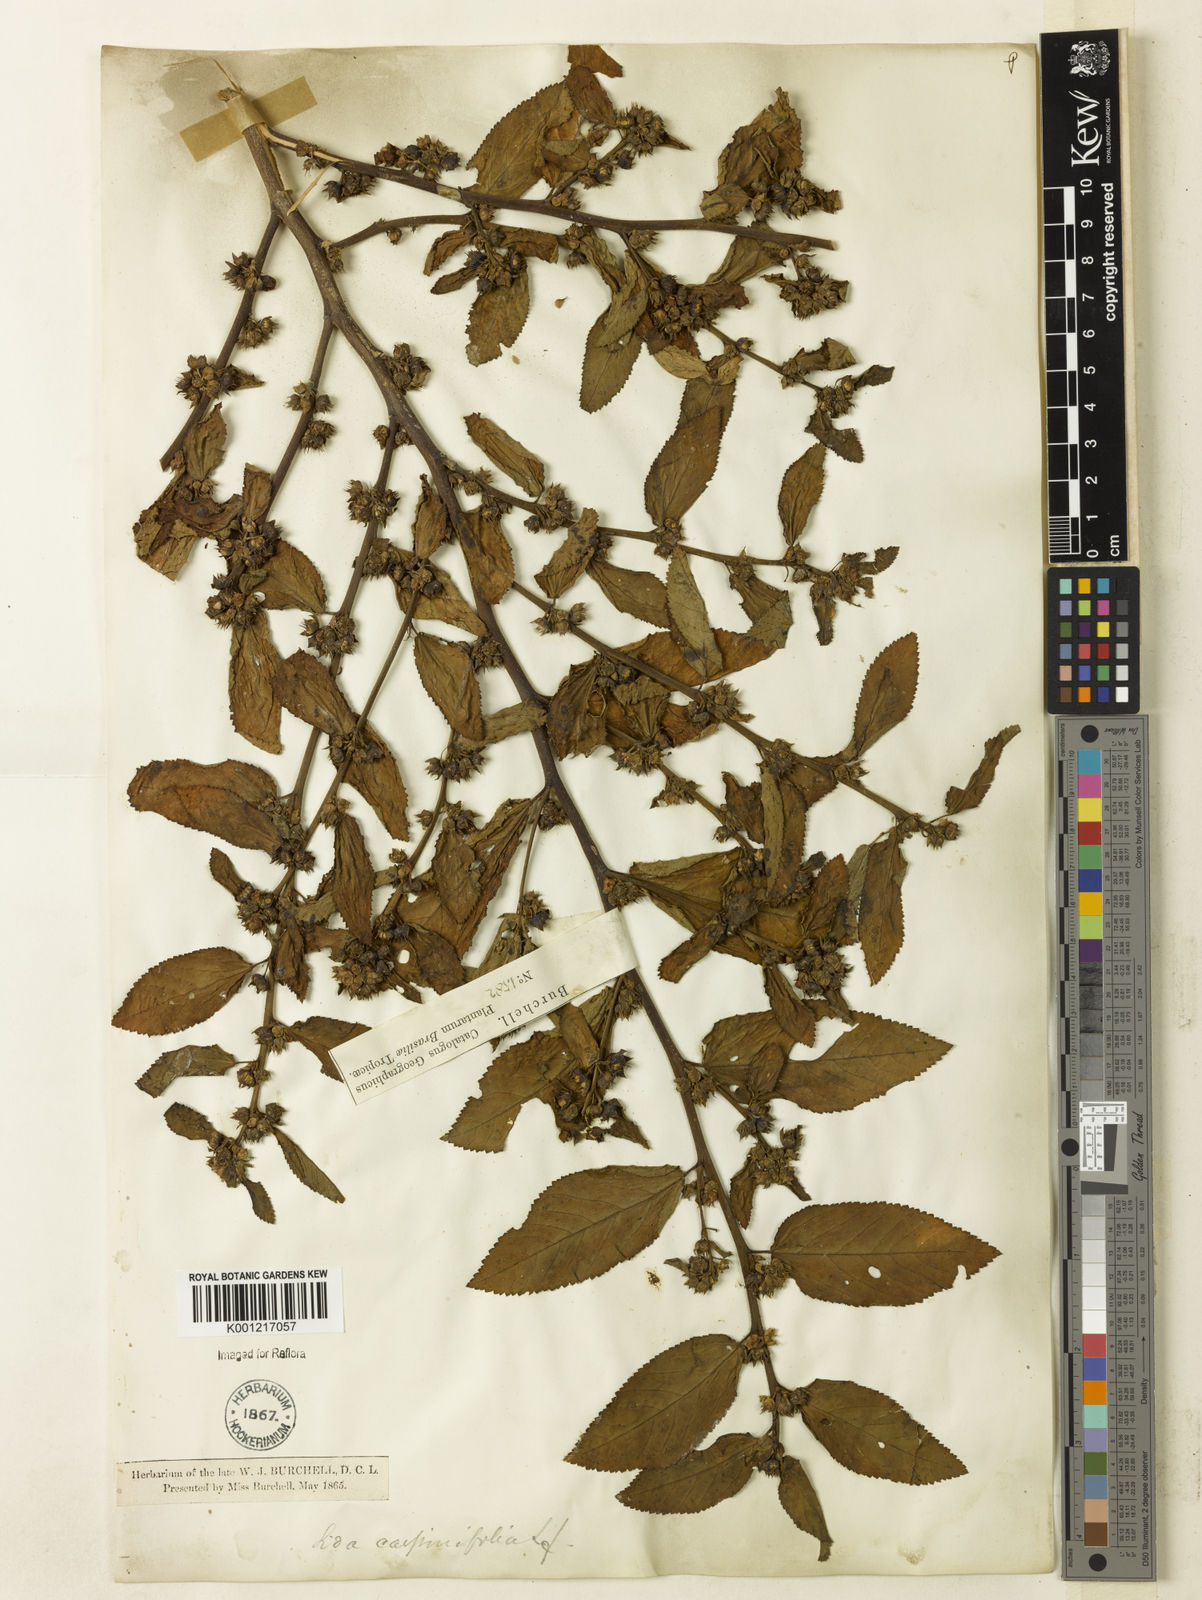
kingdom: Plantae
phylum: Tracheophyta
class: Magnoliopsida
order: Malvales
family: Malvaceae
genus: Sida
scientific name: Sida planicaulis
